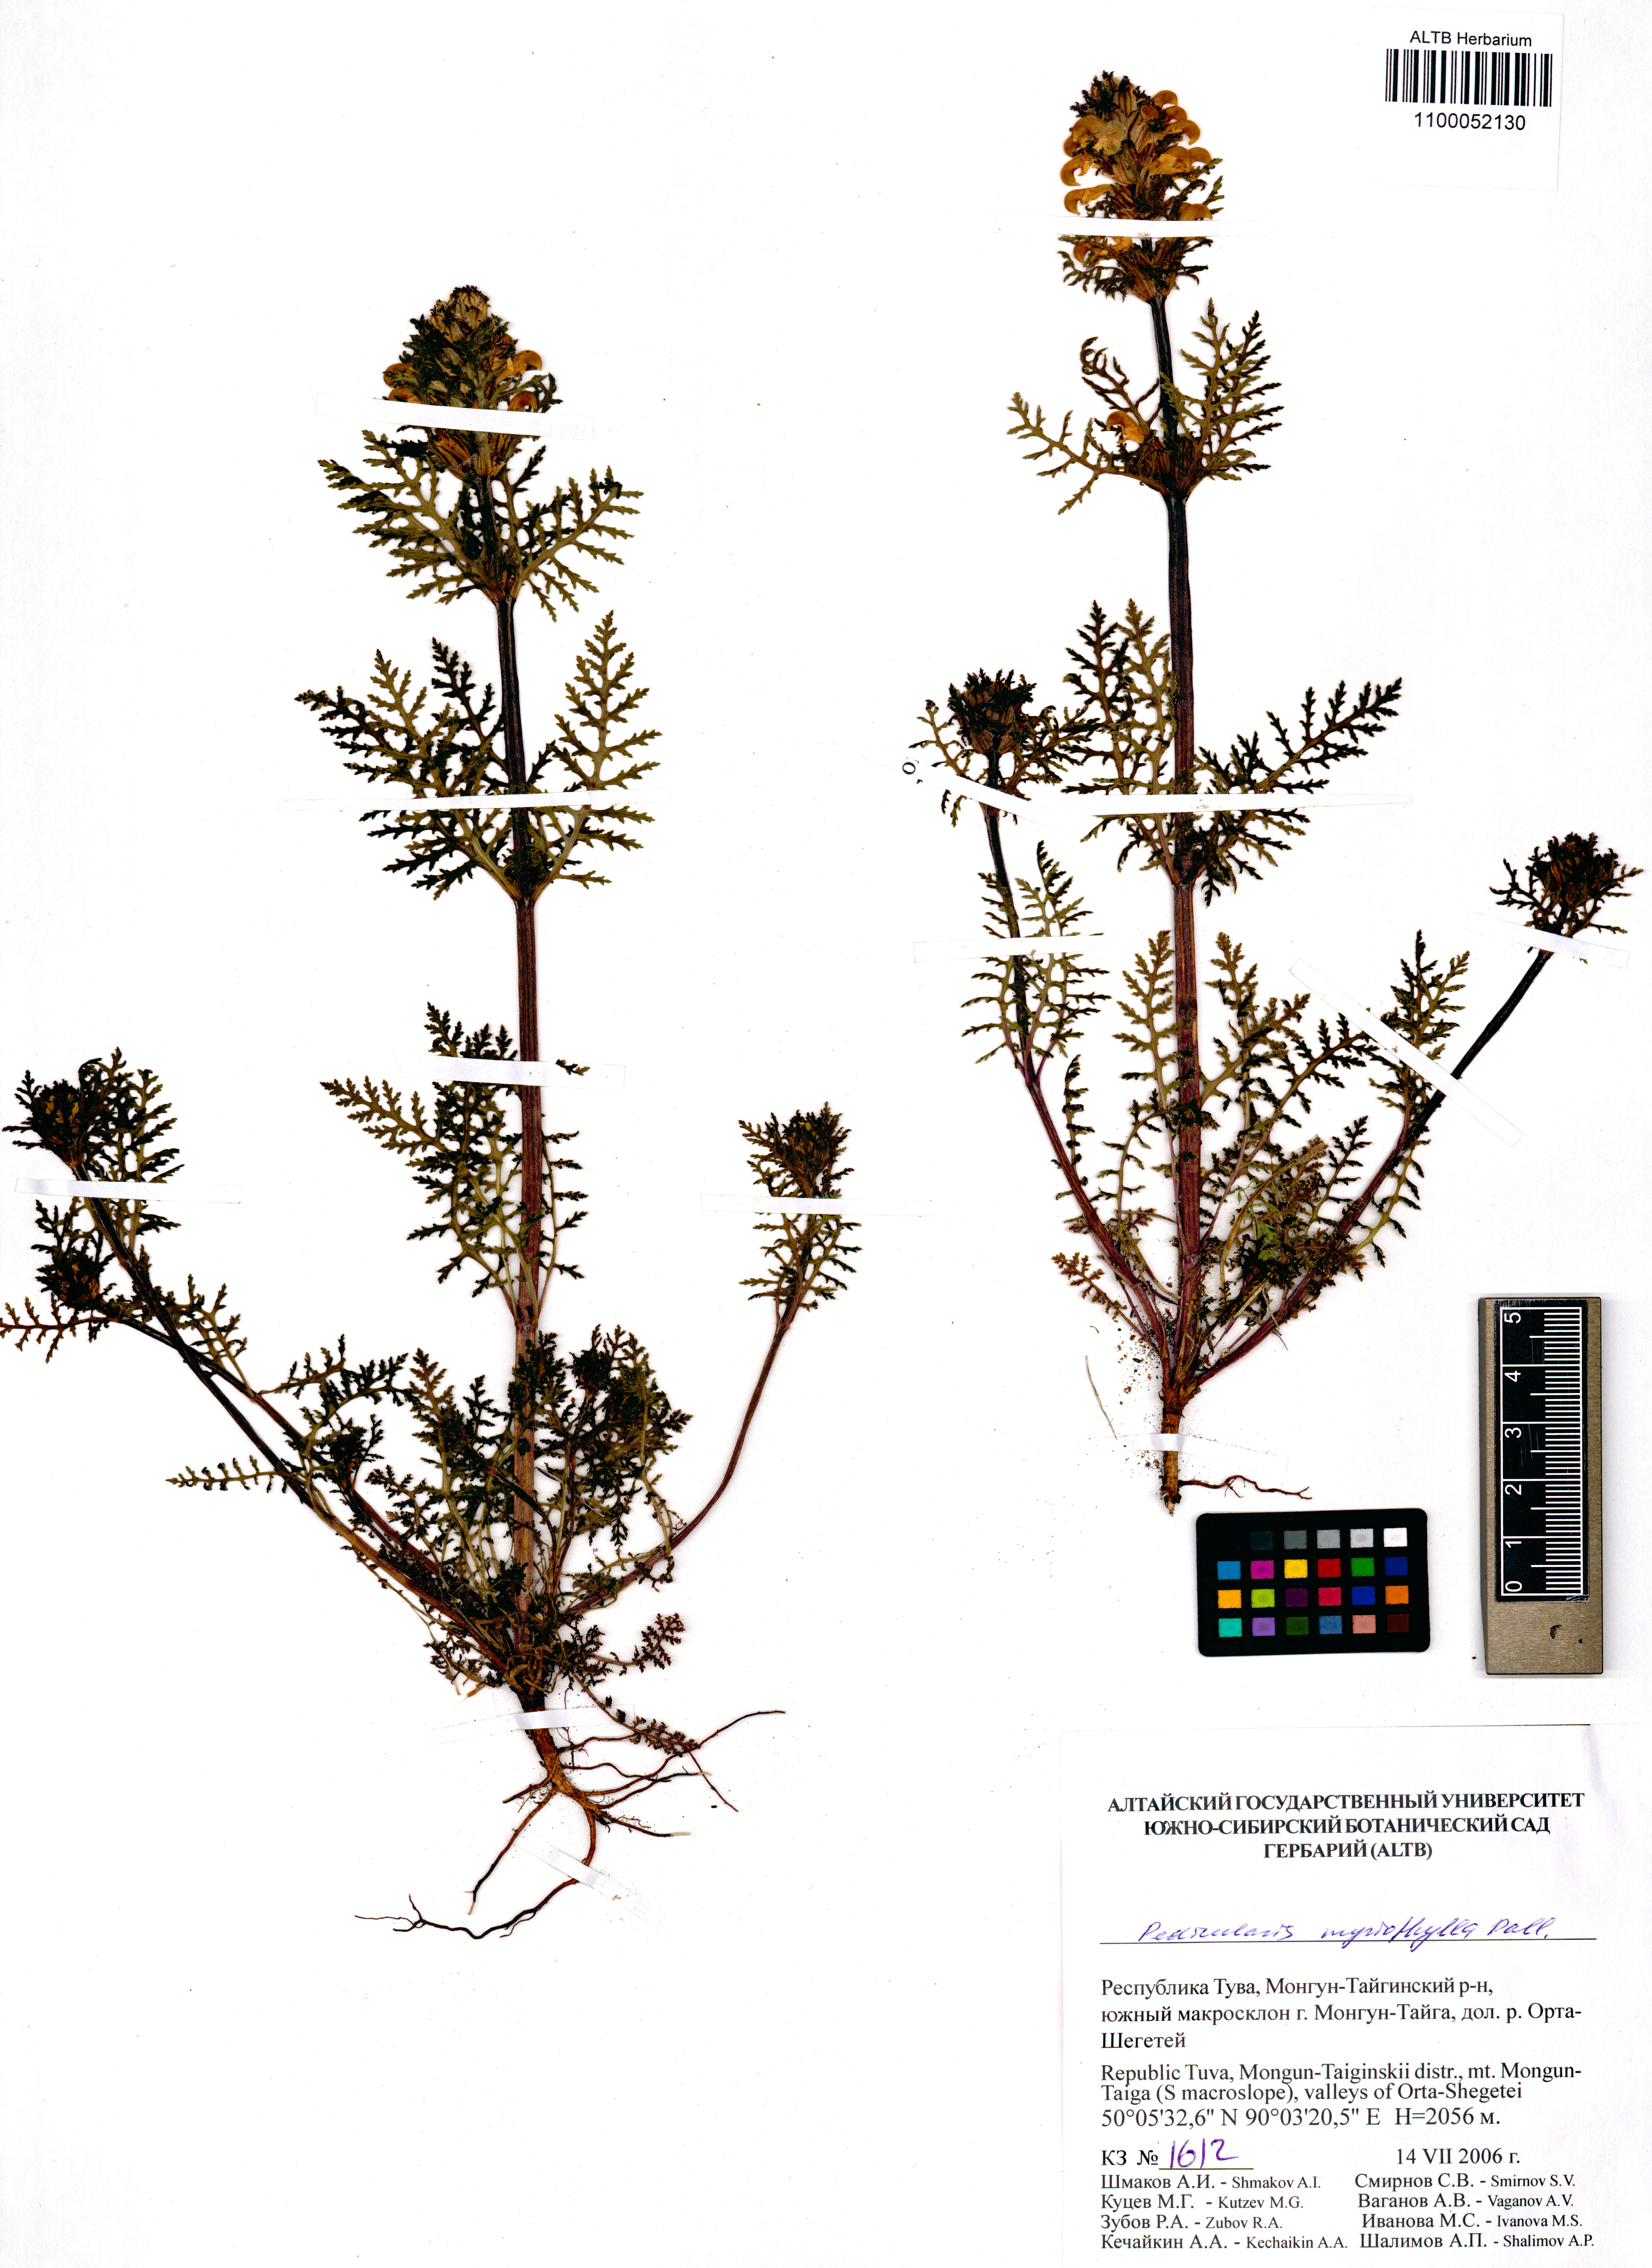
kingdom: Plantae
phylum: Tracheophyta
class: Magnoliopsida
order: Lamiales
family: Orobanchaceae
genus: Pedicularis
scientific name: Pedicularis myriophylla
